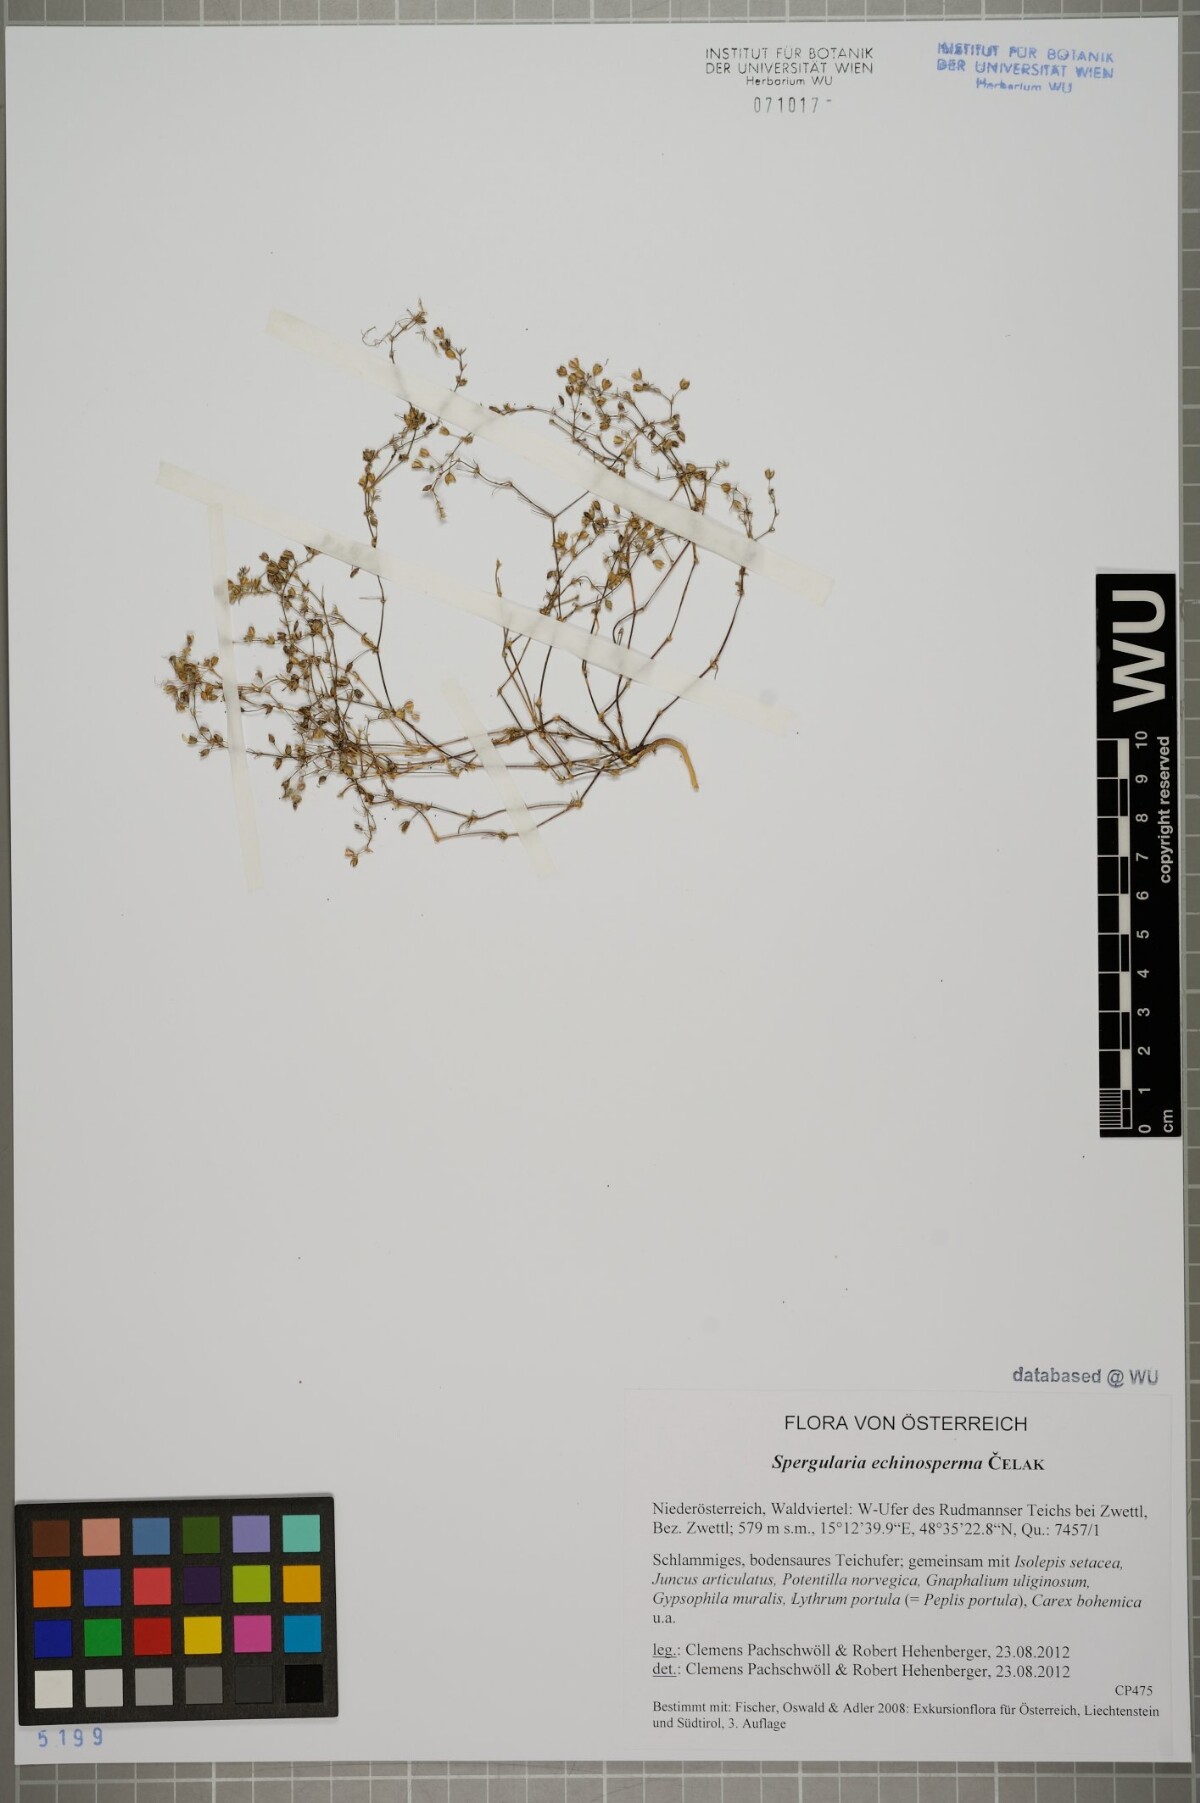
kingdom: Plantae
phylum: Tracheophyta
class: Magnoliopsida
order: Caryophyllales
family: Caryophyllaceae
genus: Spergularia
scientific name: Spergularia kurkae
